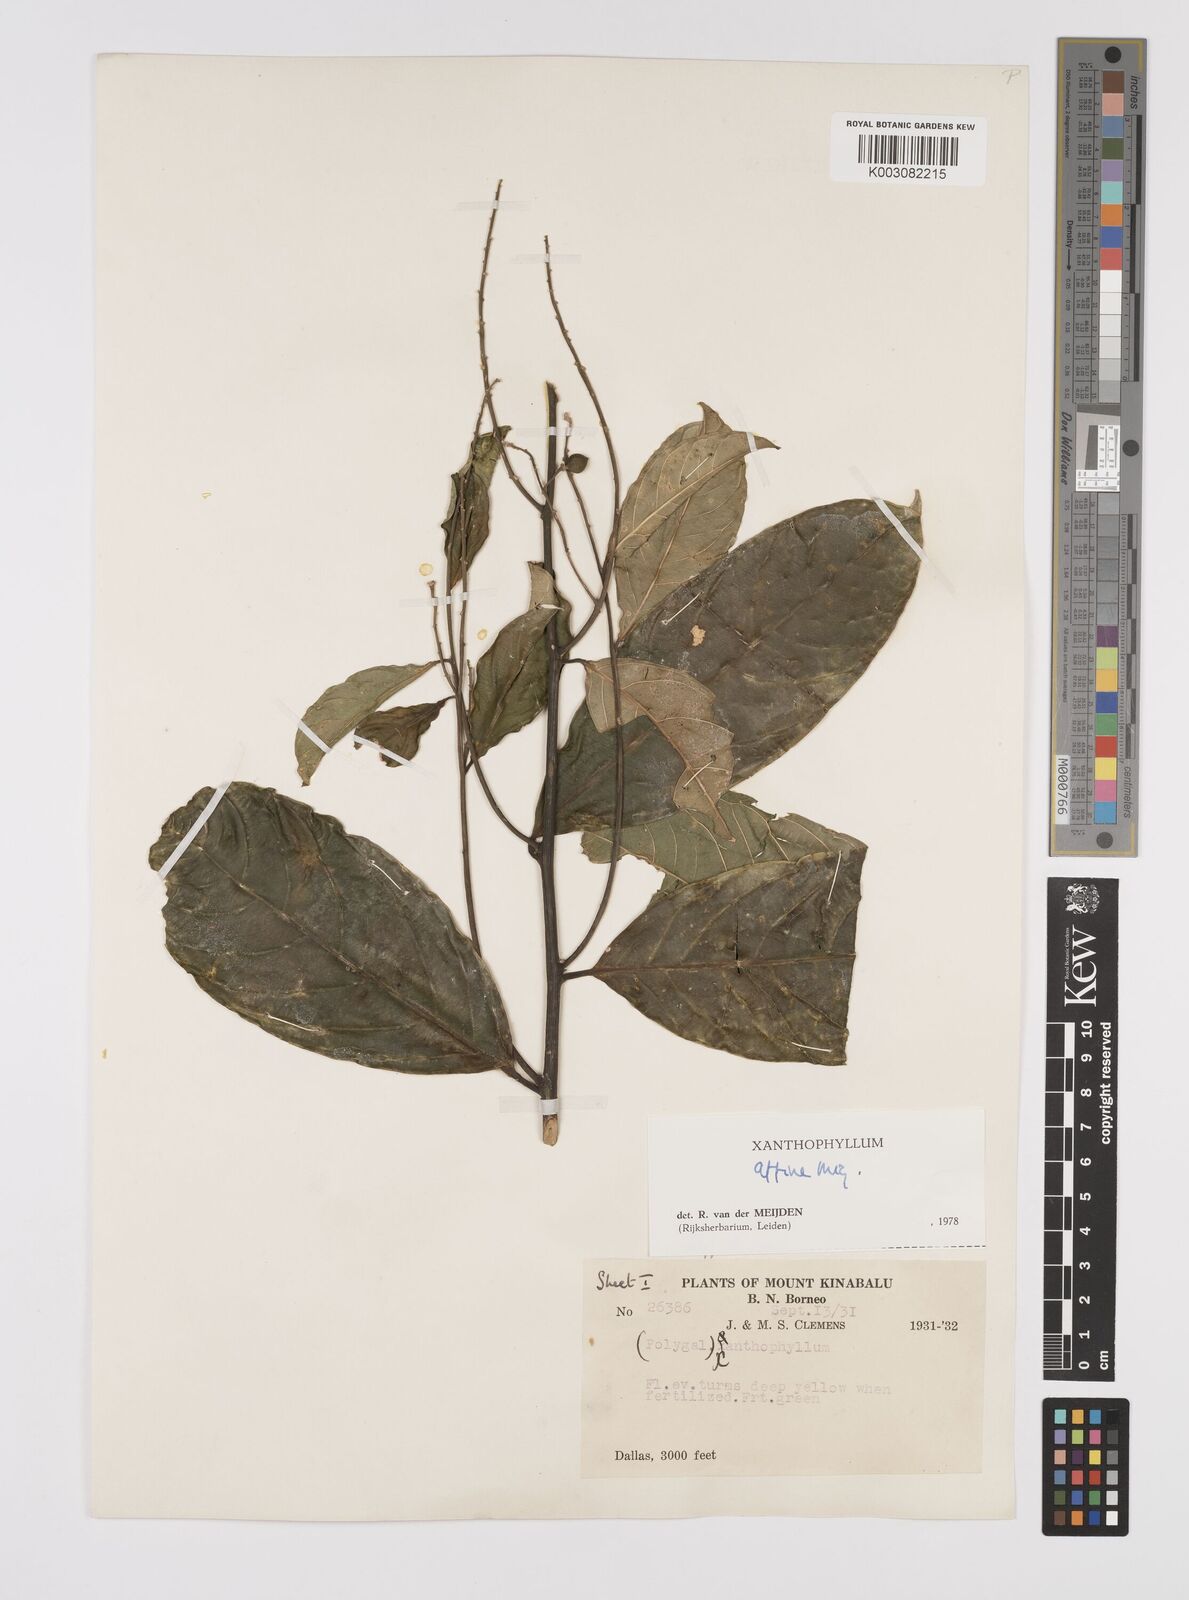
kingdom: Plantae
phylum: Tracheophyta
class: Magnoliopsida
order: Fabales
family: Polygalaceae
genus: Xanthophyllum
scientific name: Xanthophyllum flavescens
